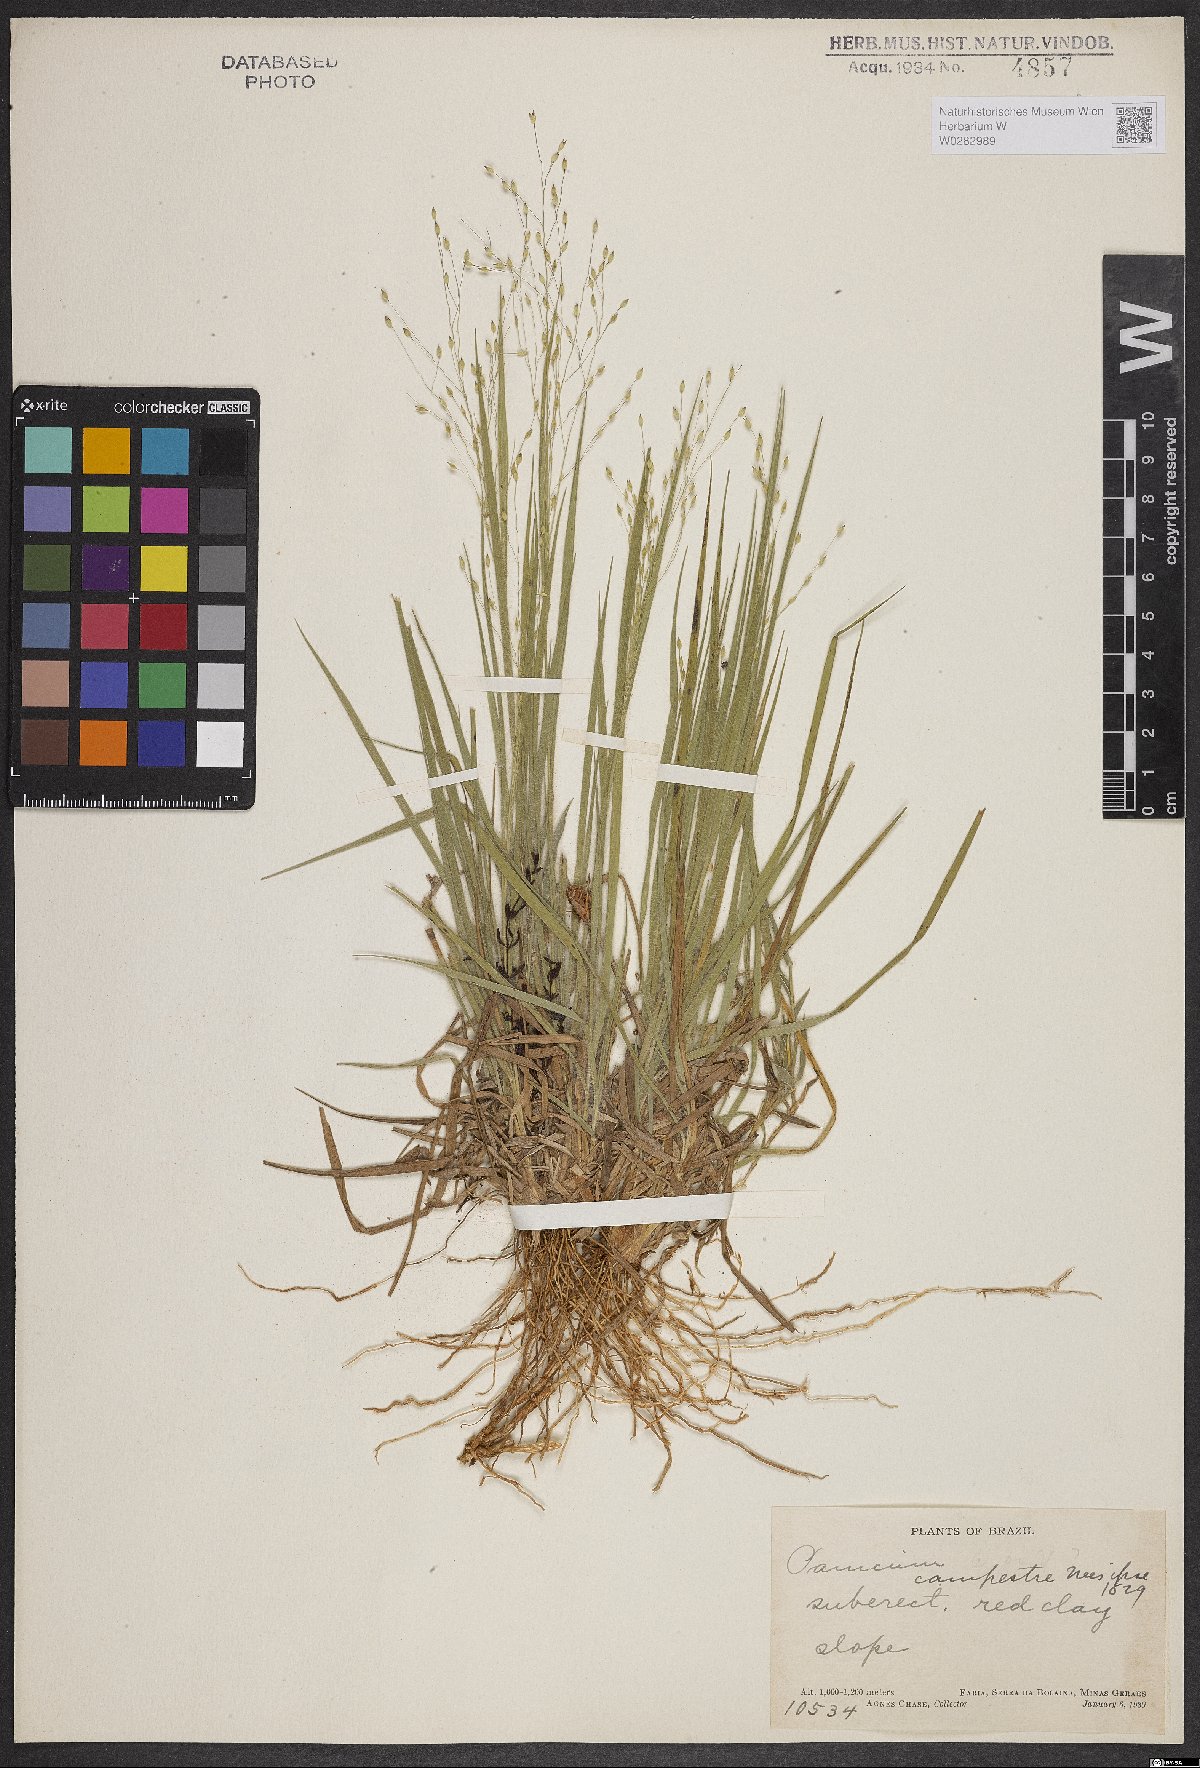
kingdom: Plantae
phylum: Tracheophyta
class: Liliopsida
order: Poales
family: Poaceae
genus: Panicum
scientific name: Panicum peladoense
